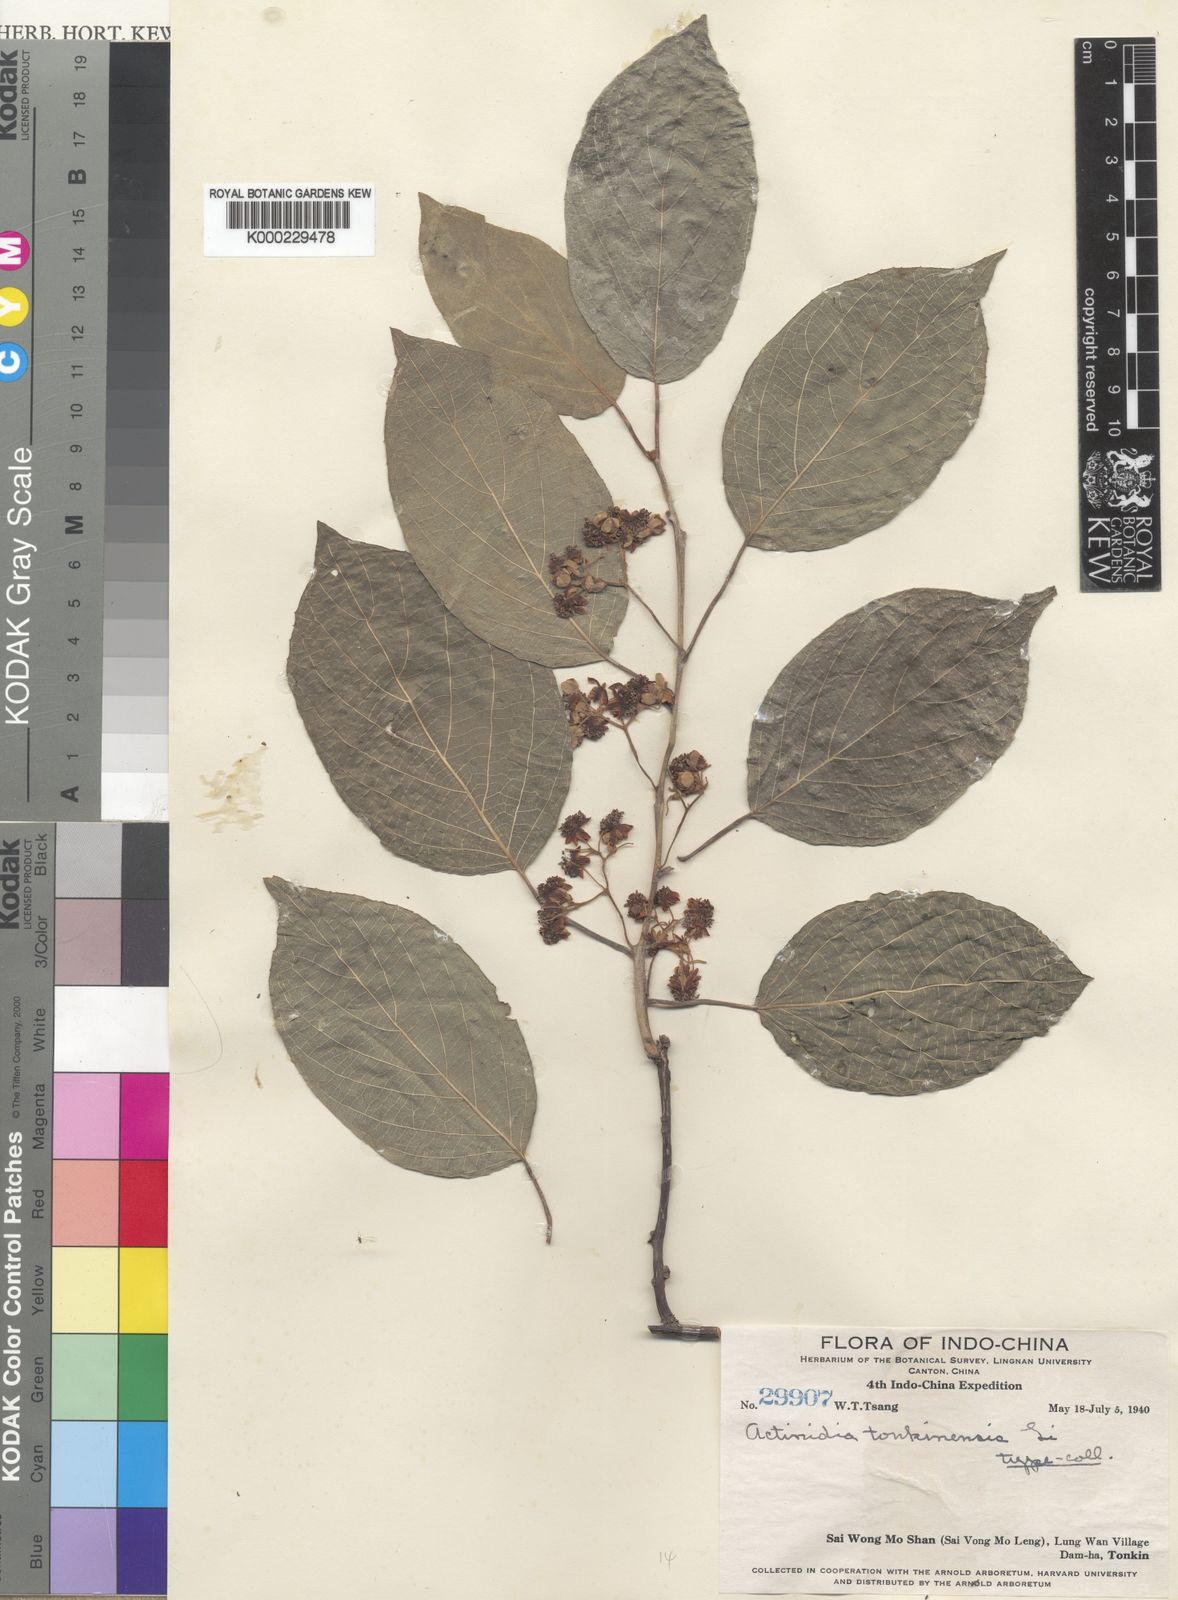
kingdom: Plantae
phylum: Tracheophyta
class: Magnoliopsida
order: Ericales
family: Actinidiaceae
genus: Actinidia
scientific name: Actinidia latifolia
